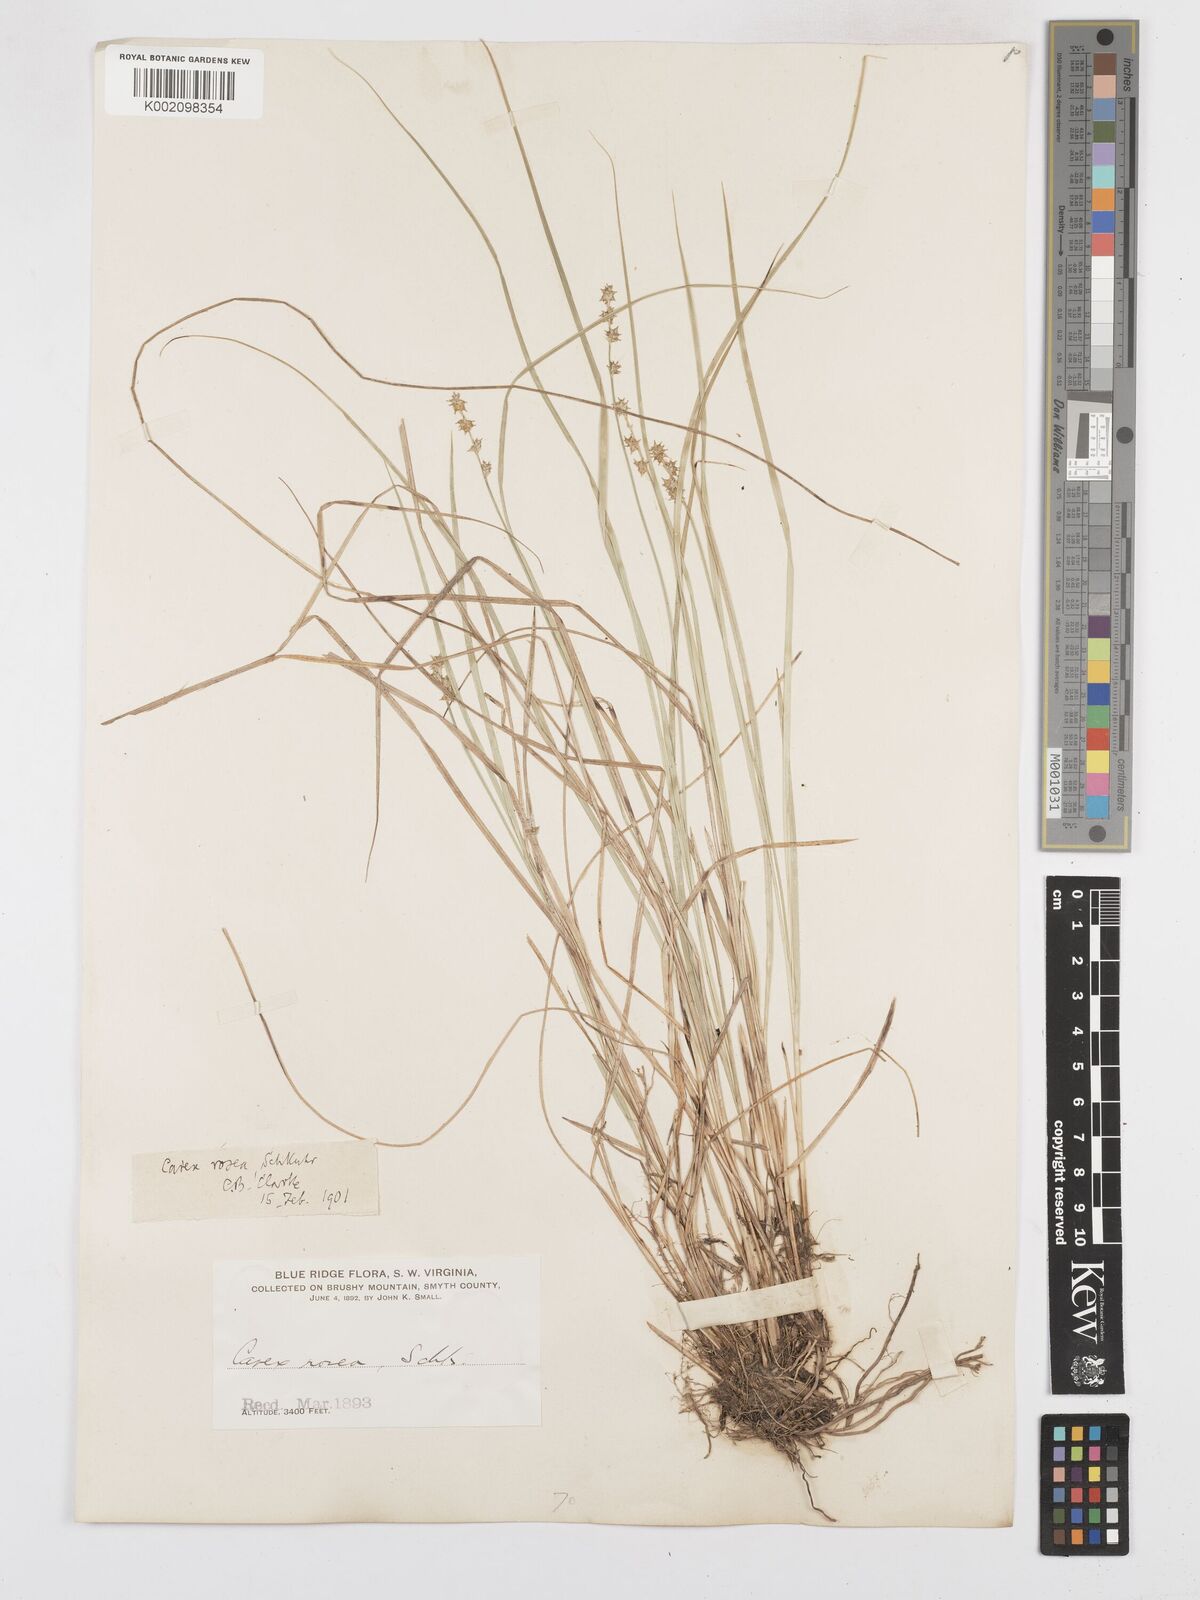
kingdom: Plantae
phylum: Tracheophyta
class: Liliopsida
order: Poales
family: Cyperaceae
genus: Carex
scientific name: Carex rosea
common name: Curly-styled wood sedge
